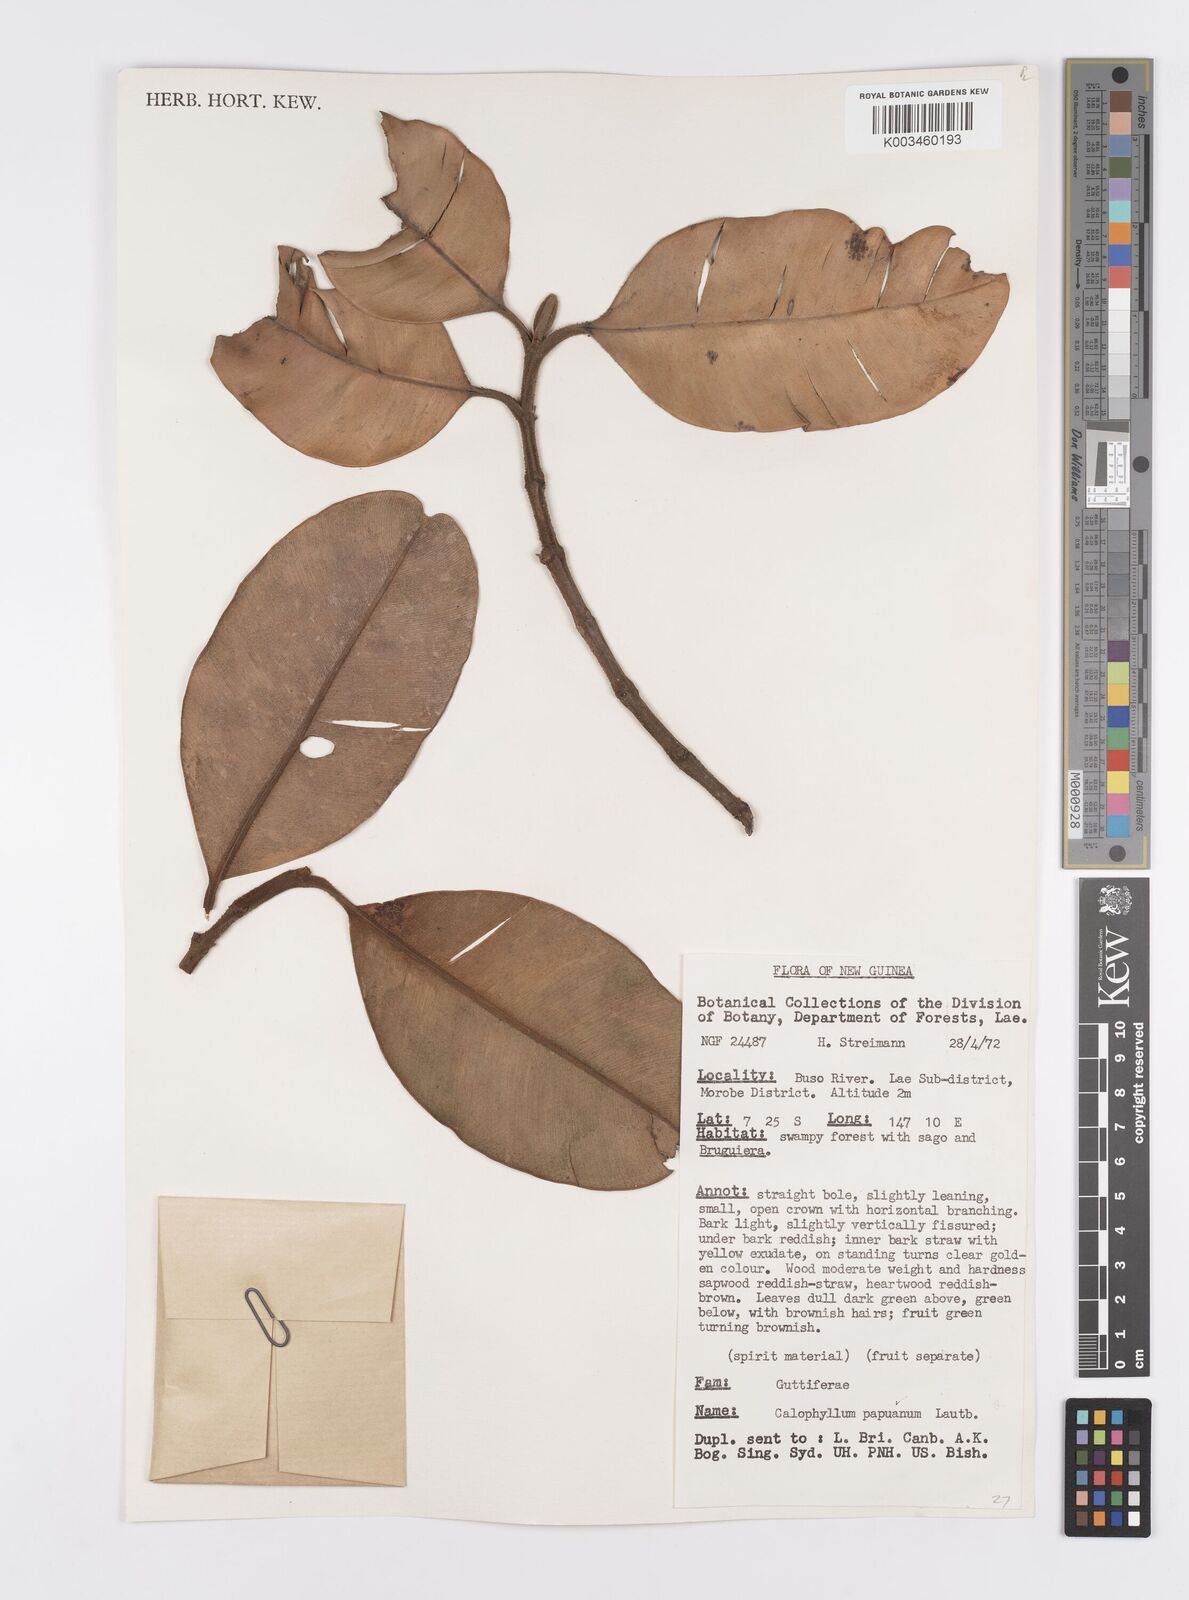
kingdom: Plantae
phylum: Tracheophyta
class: Magnoliopsida
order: Malpighiales
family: Calophyllaceae
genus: Calophyllum
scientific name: Calophyllum papuanum
